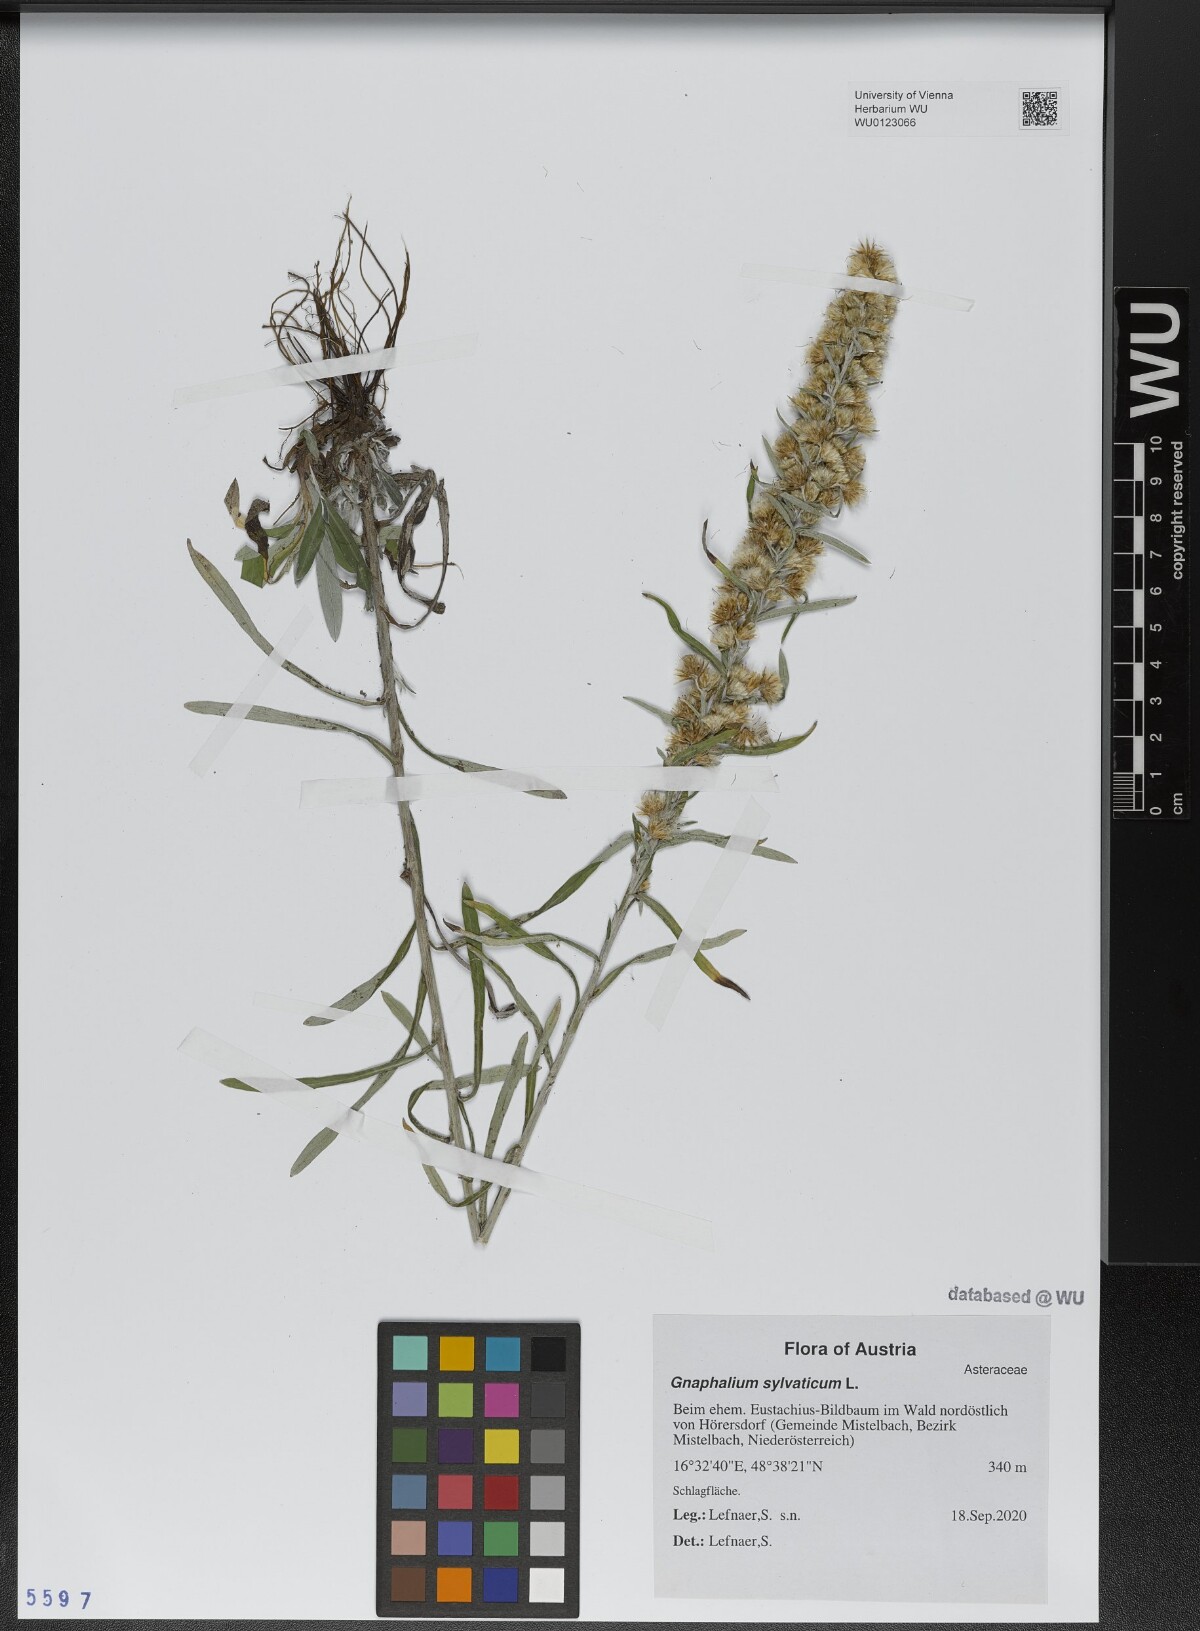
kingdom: Plantae
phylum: Tracheophyta
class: Magnoliopsida
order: Asterales
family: Asteraceae
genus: Omalotheca
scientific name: Omalotheca sylvatica
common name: Heath cudweed
